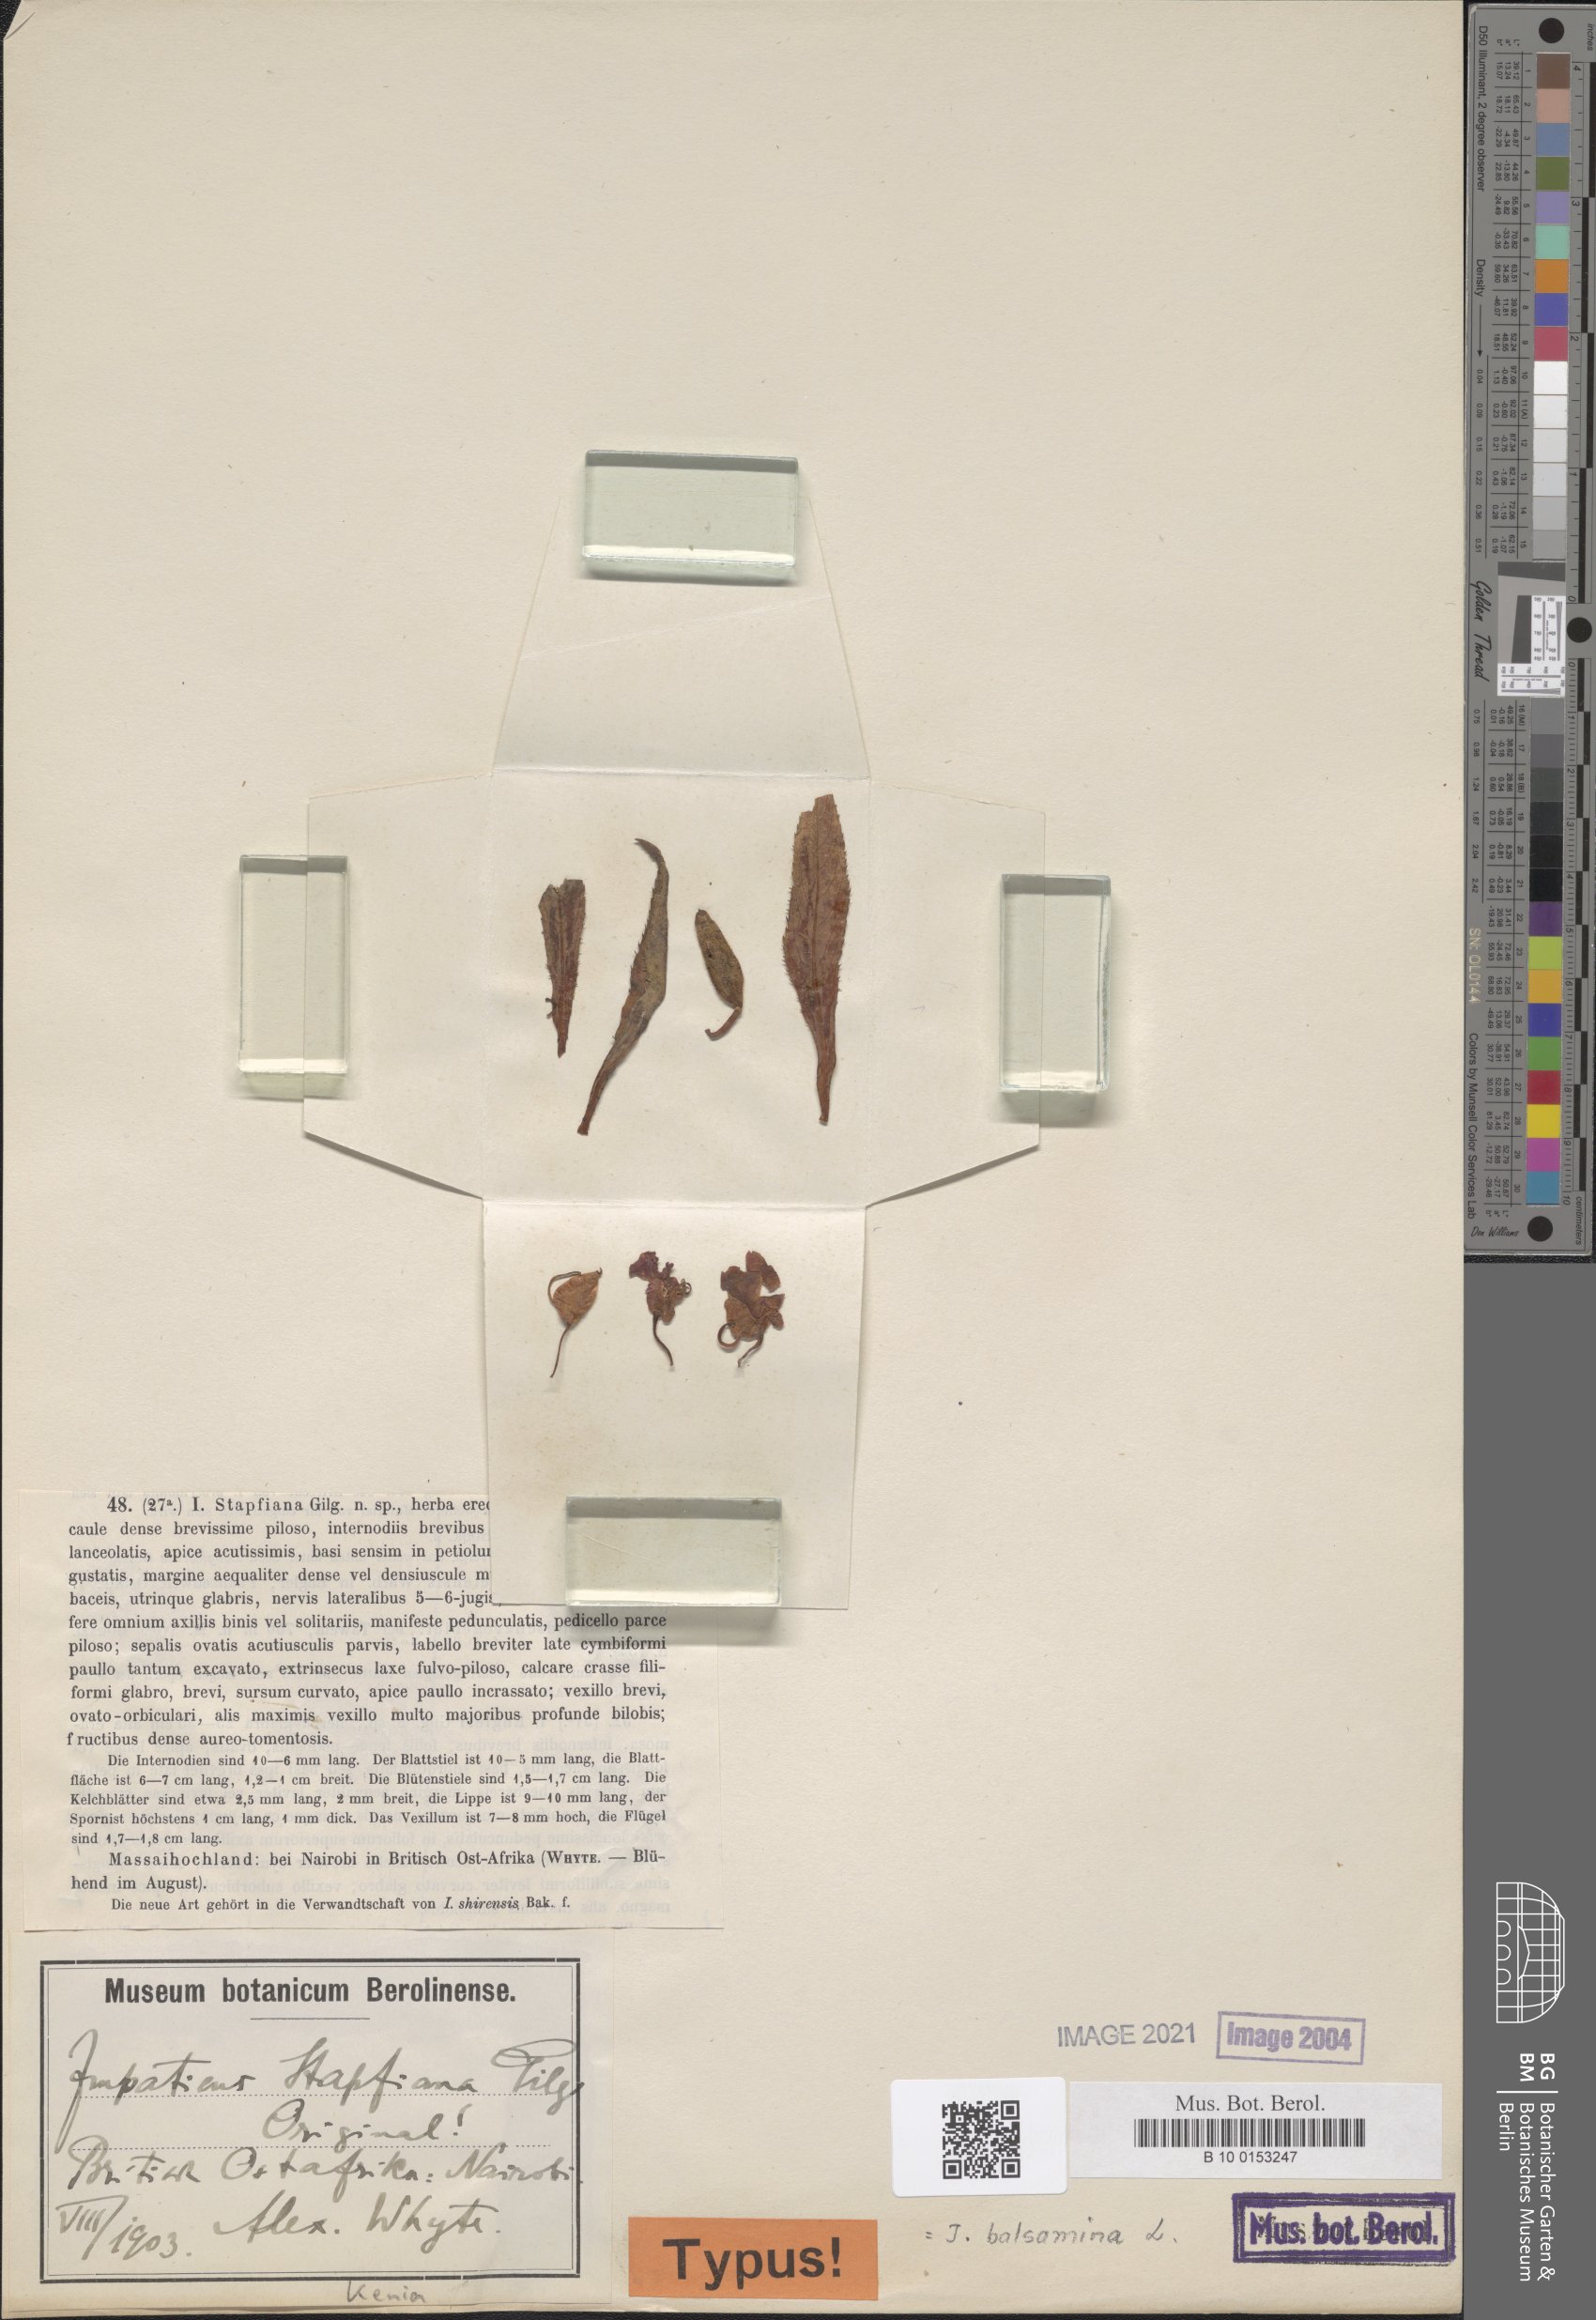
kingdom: Plantae
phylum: Tracheophyta
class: Magnoliopsida
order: Ericales
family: Balsaminaceae
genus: Impatiens
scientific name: Impatiens balsamina
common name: Balsam
